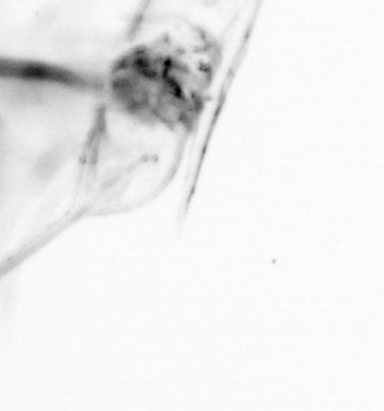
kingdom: Animalia
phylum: Chaetognatha
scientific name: Chaetognatha
